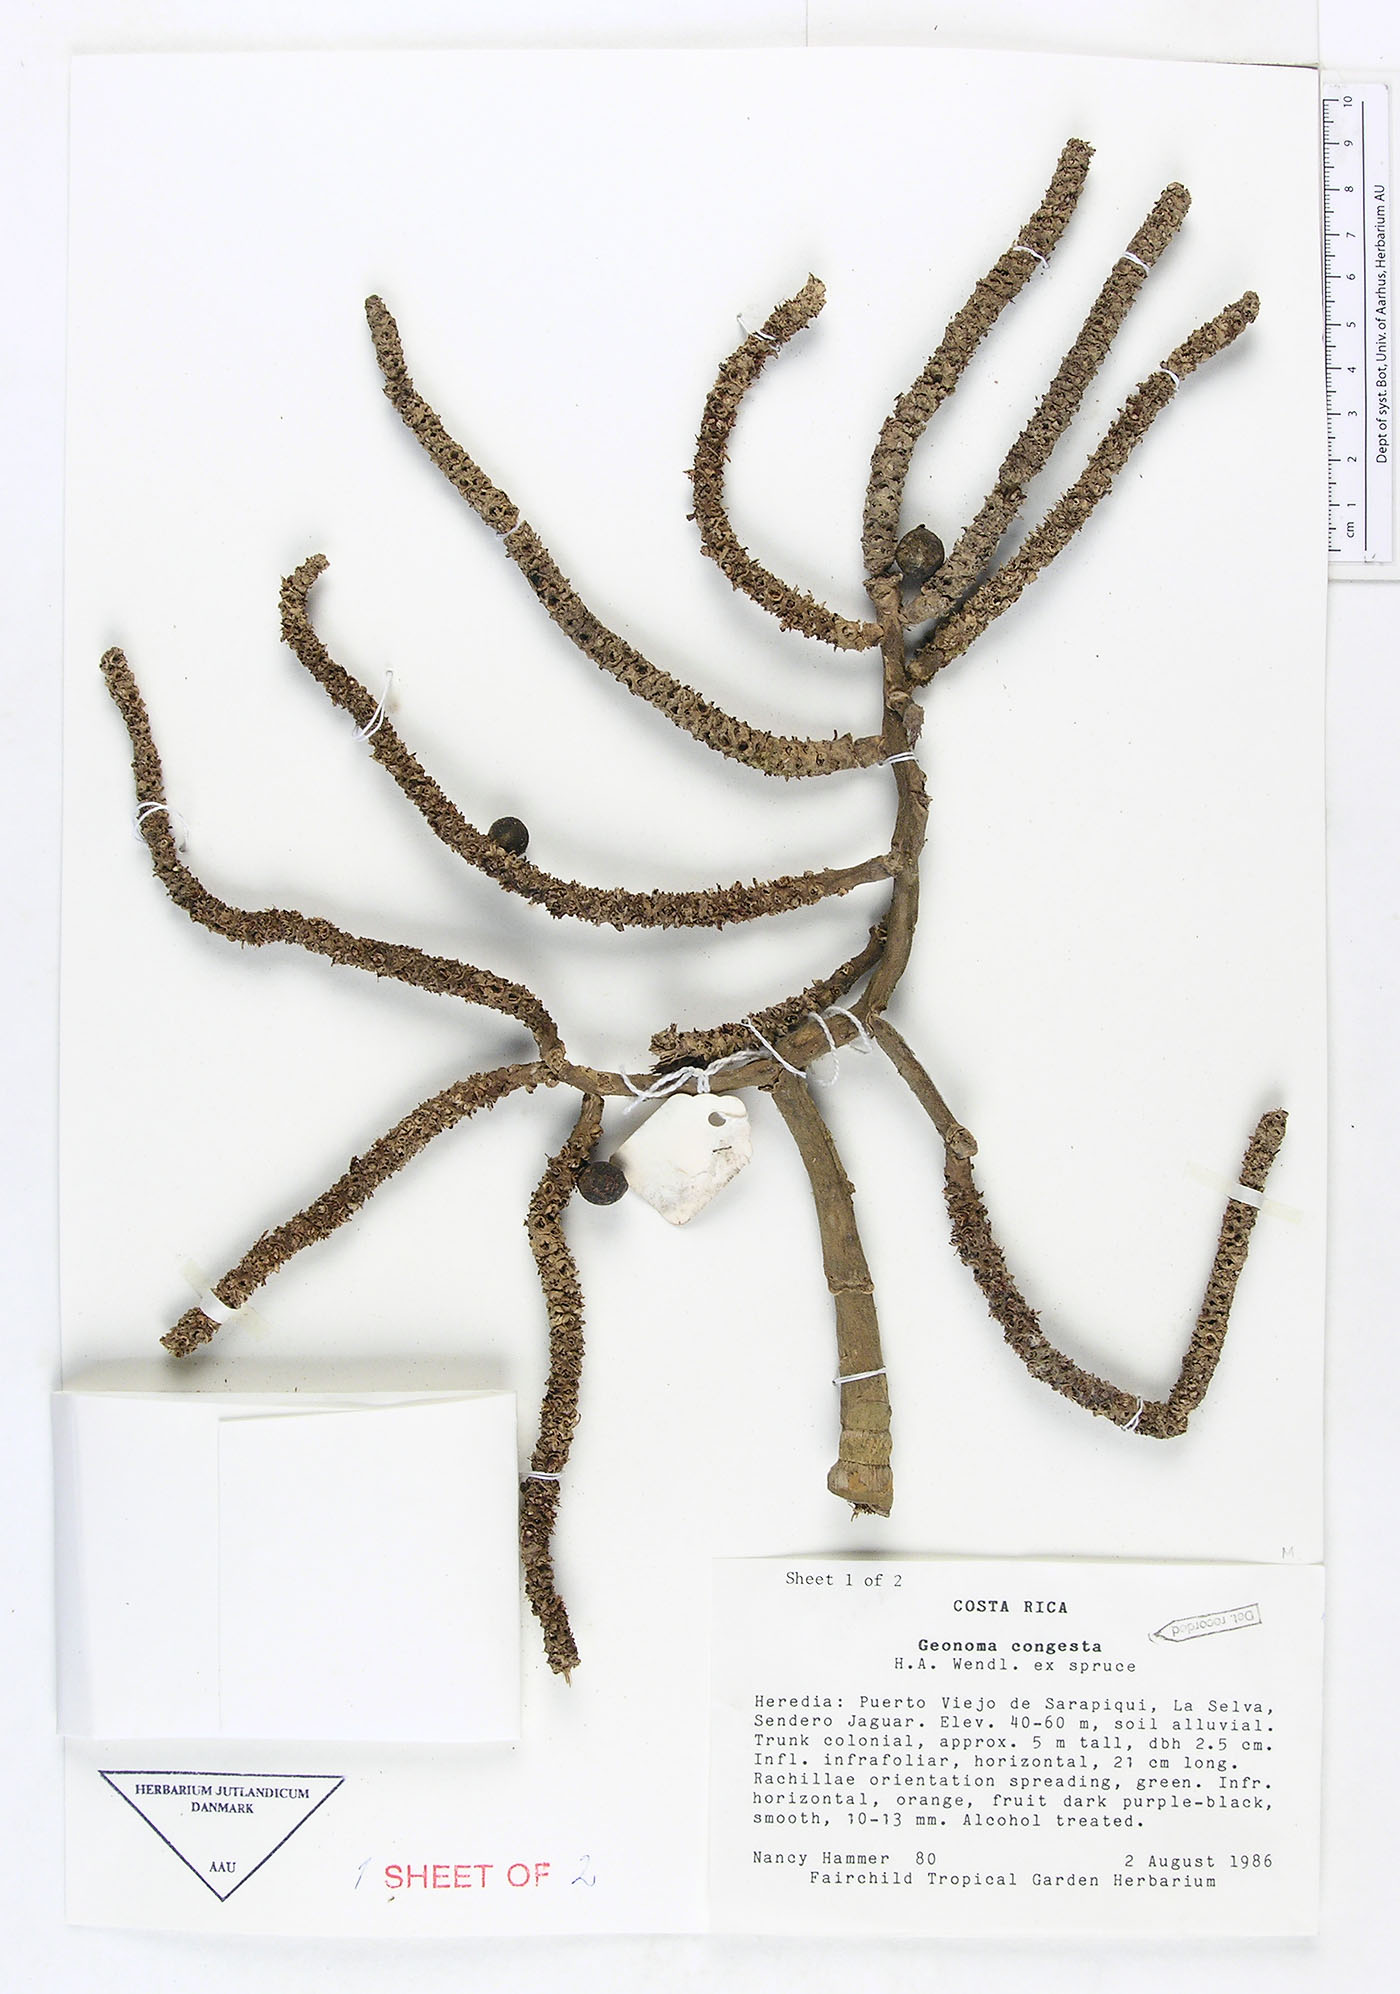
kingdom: Plantae
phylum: Tracheophyta
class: Liliopsida
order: Arecales
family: Arecaceae
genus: Geonoma
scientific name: Geonoma congesta
